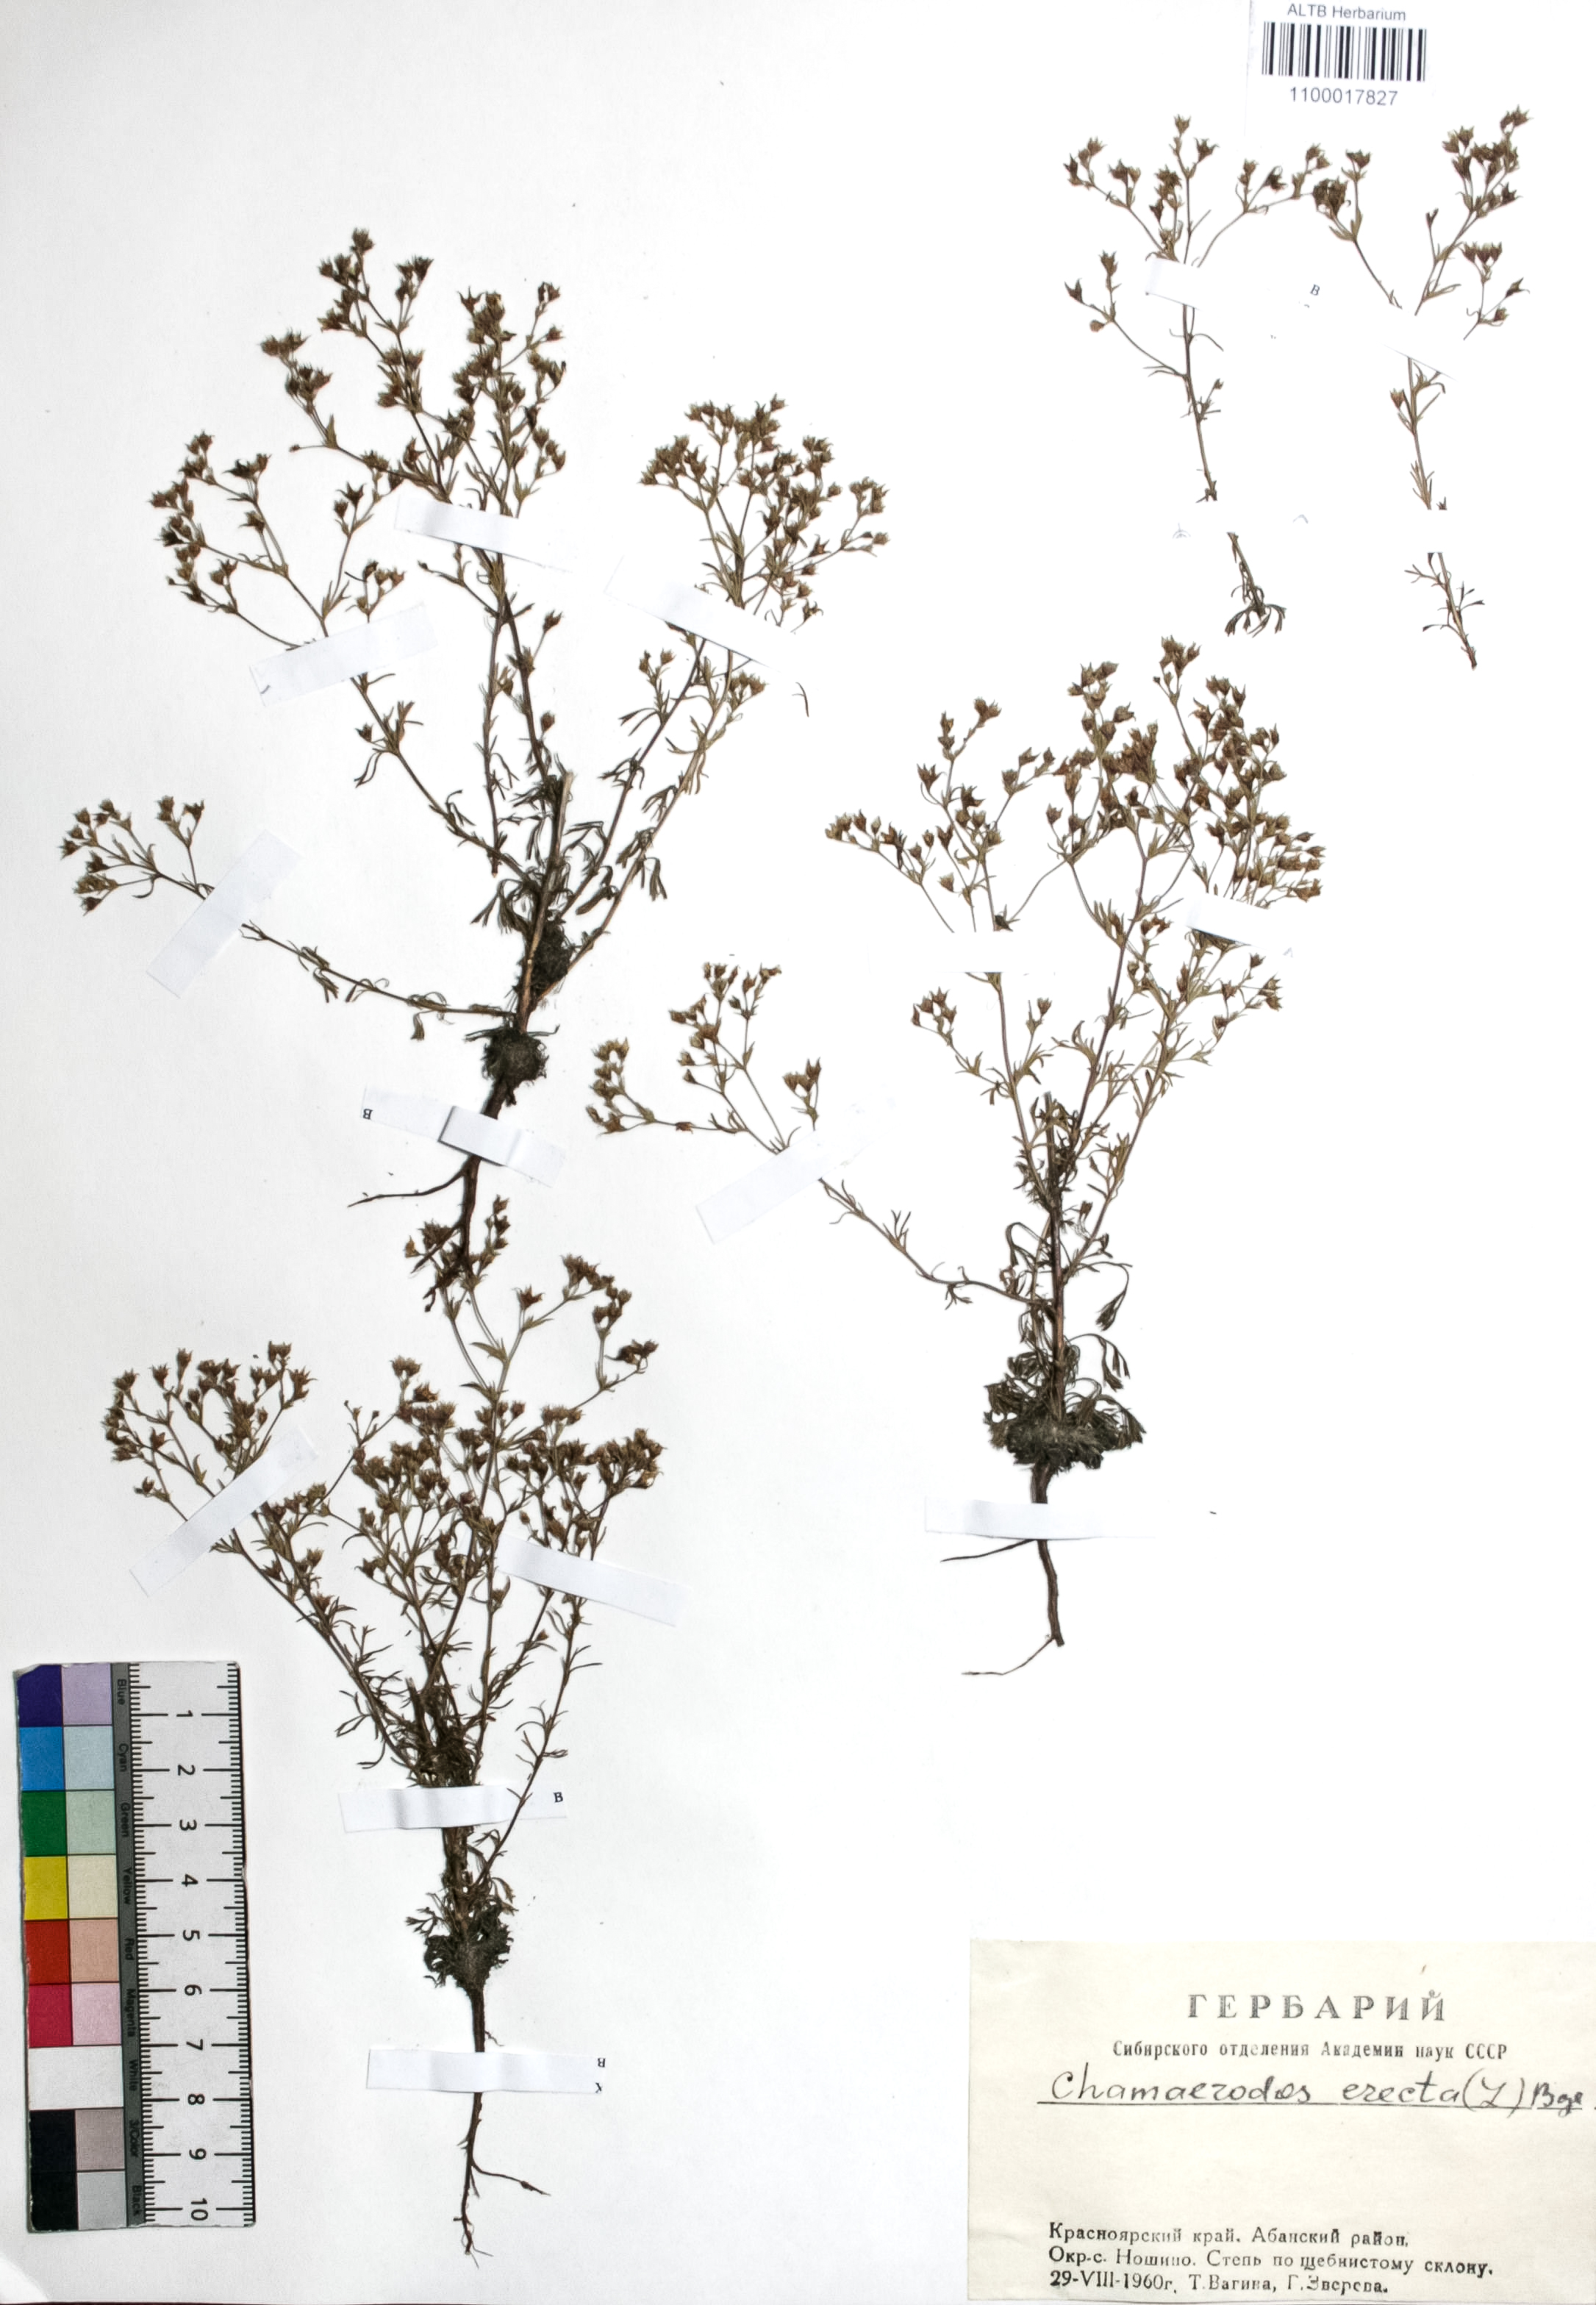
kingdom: Plantae
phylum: Tracheophyta
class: Magnoliopsida
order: Rosales
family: Rosaceae
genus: Chamaerhodos
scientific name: Chamaerhodos erecta
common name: American chamaerhodos
